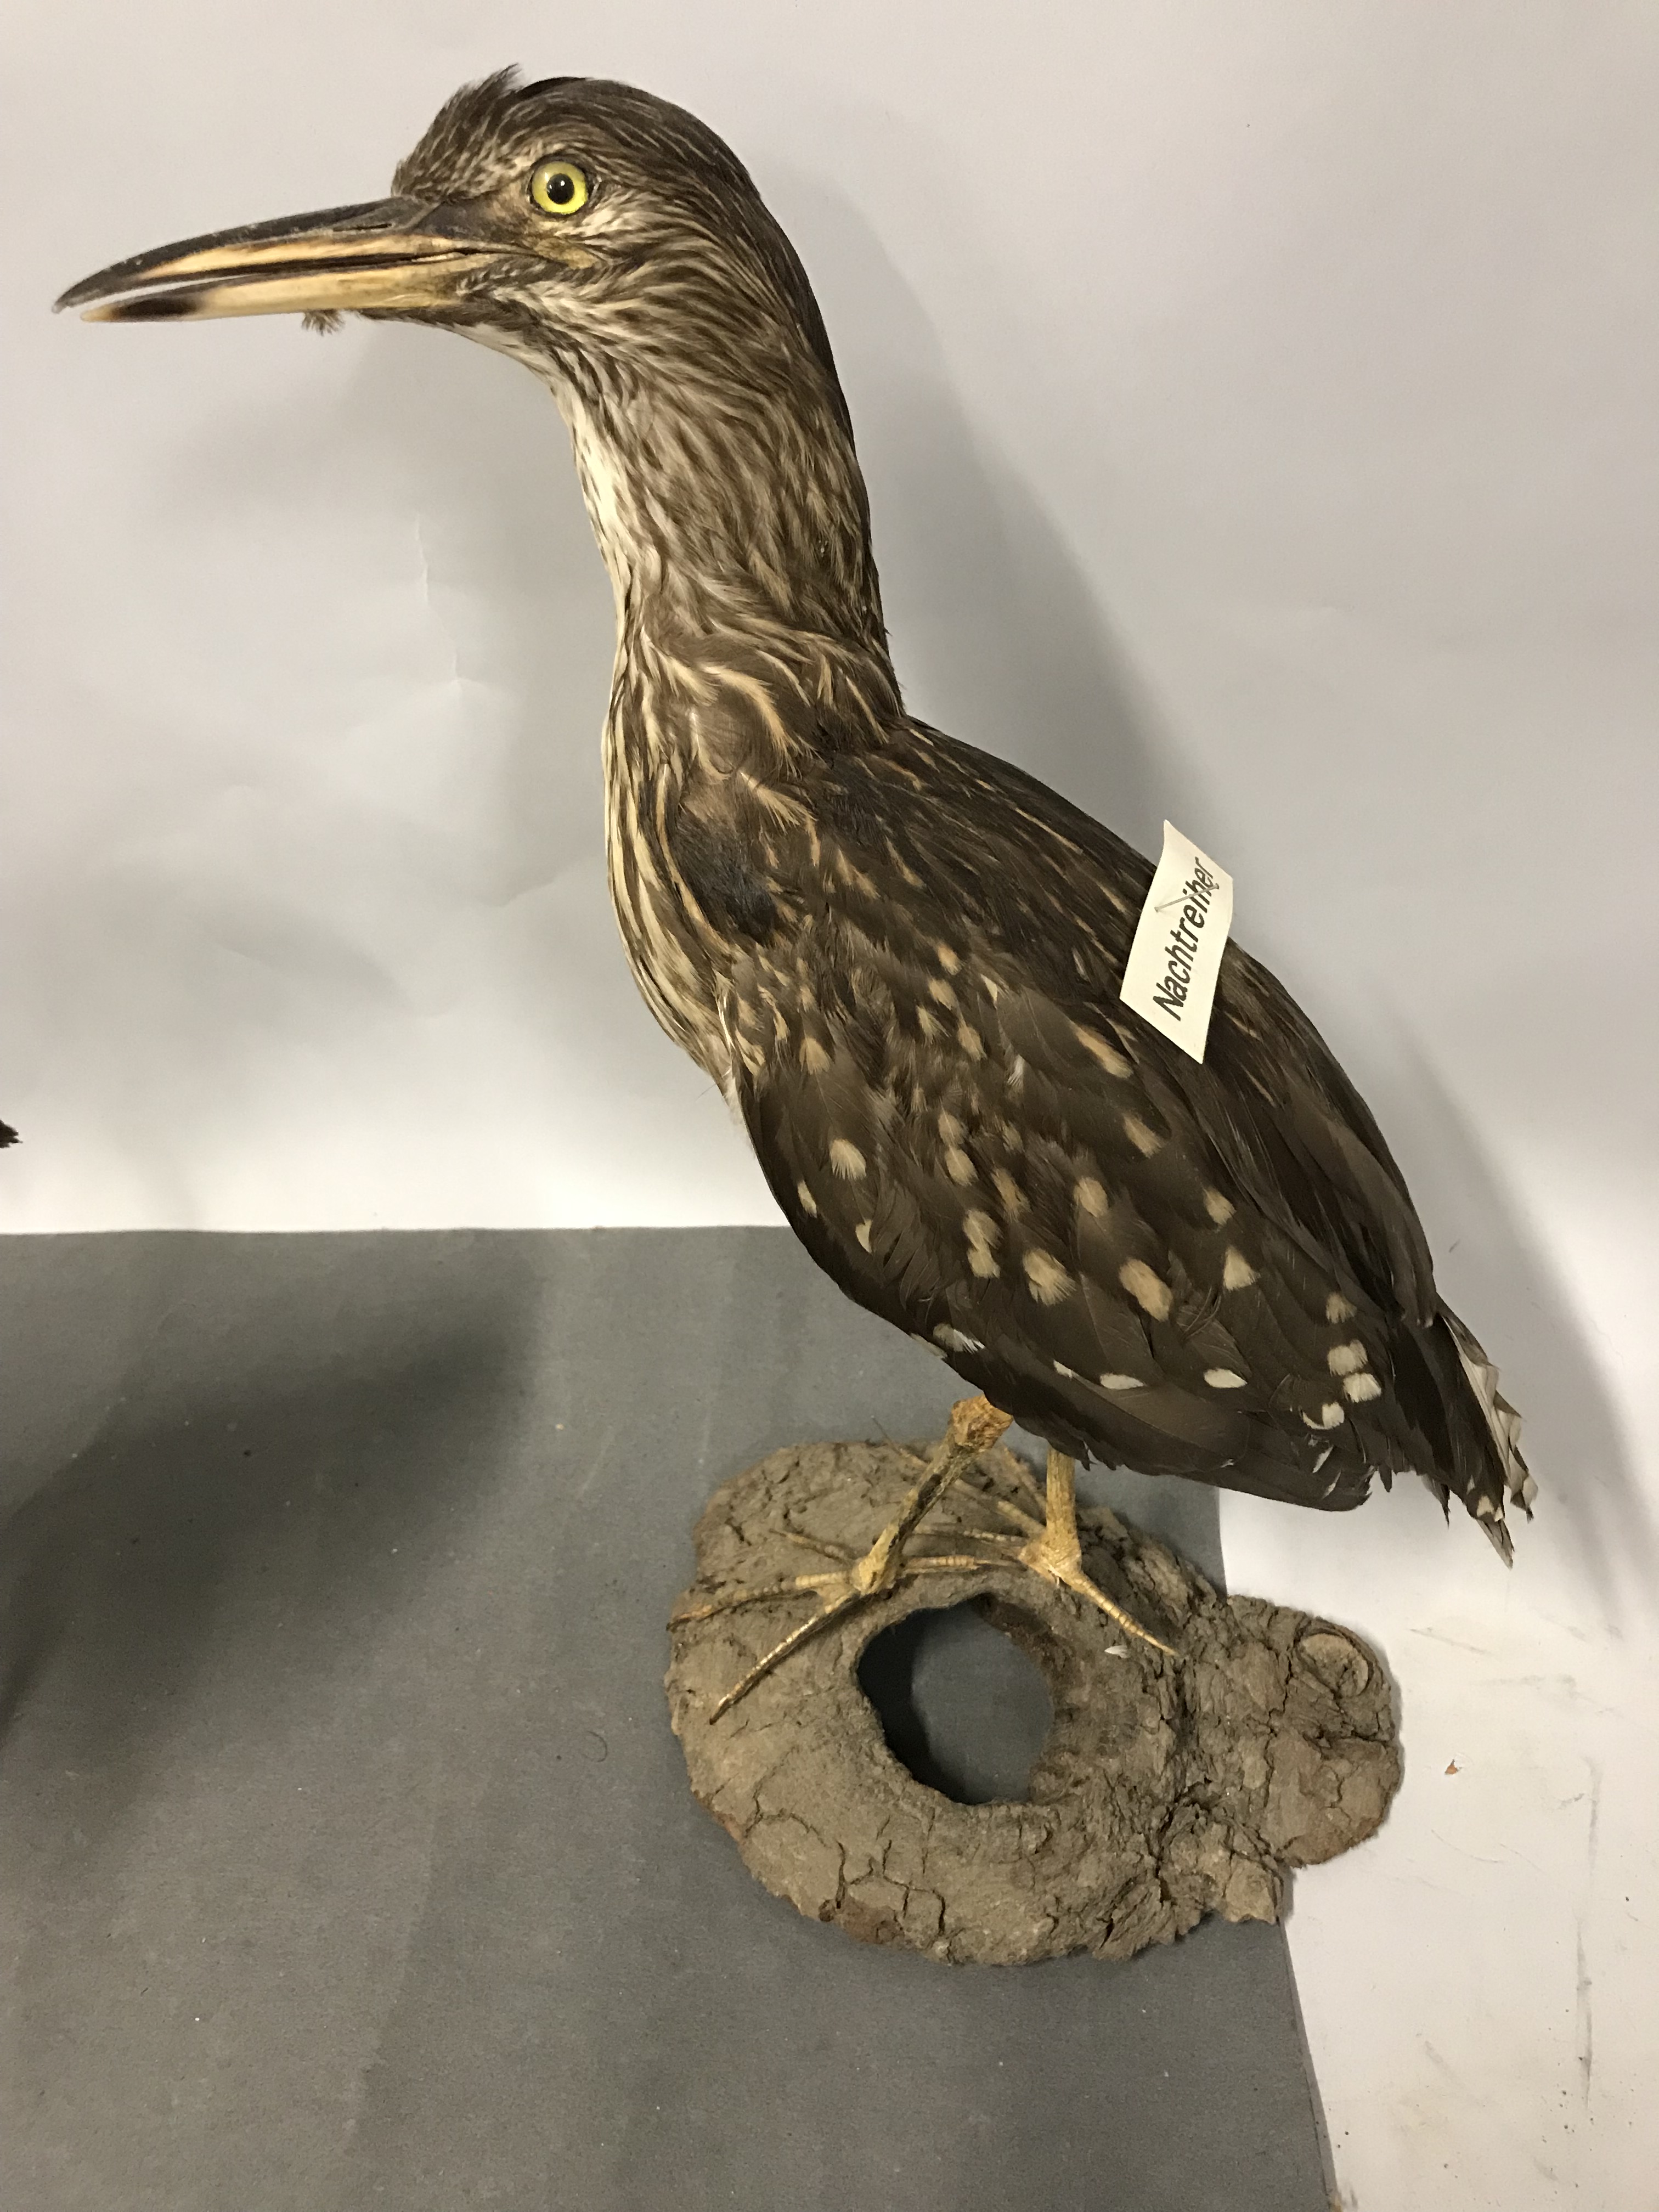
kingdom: Animalia
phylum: Chordata
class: Aves
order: Pelecaniformes
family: Ardeidae
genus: Nycticorax
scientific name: Nycticorax nycticorax
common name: Black-crowned night heron
